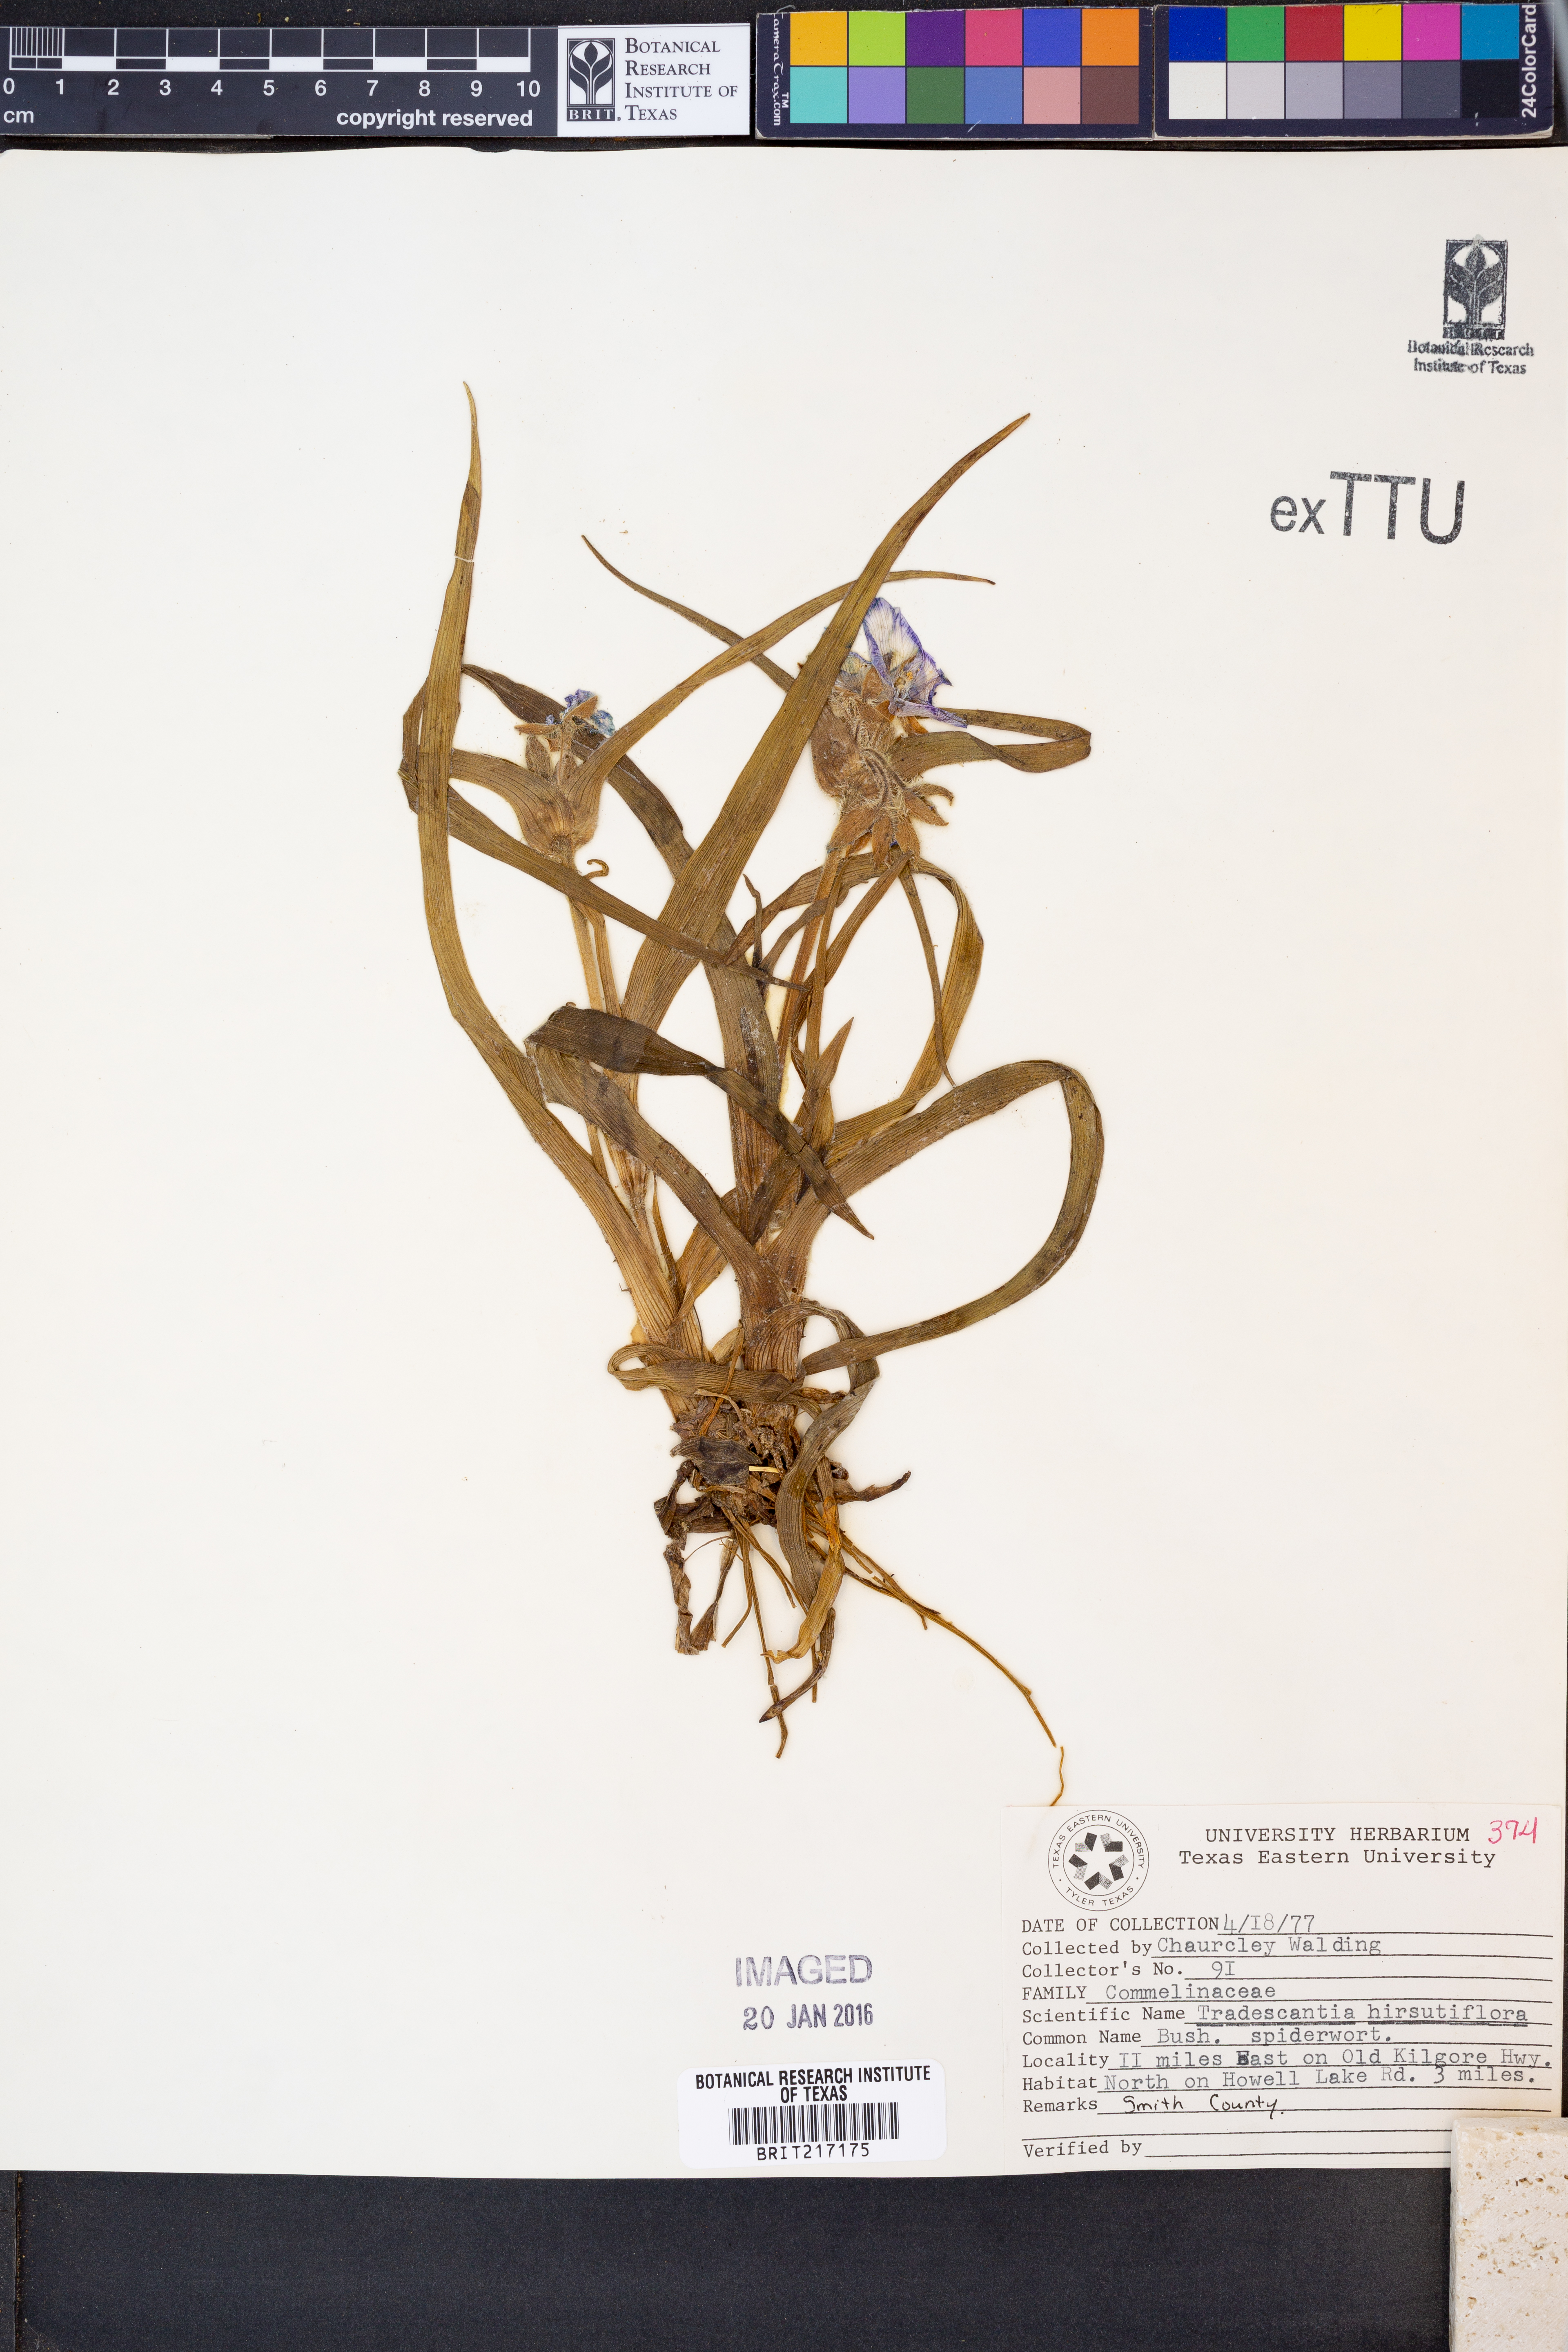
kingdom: Plantae
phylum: Tracheophyta
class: Liliopsida
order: Commelinales
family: Commelinaceae
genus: Tradescantia
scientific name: Tradescantia hirsutiflora
